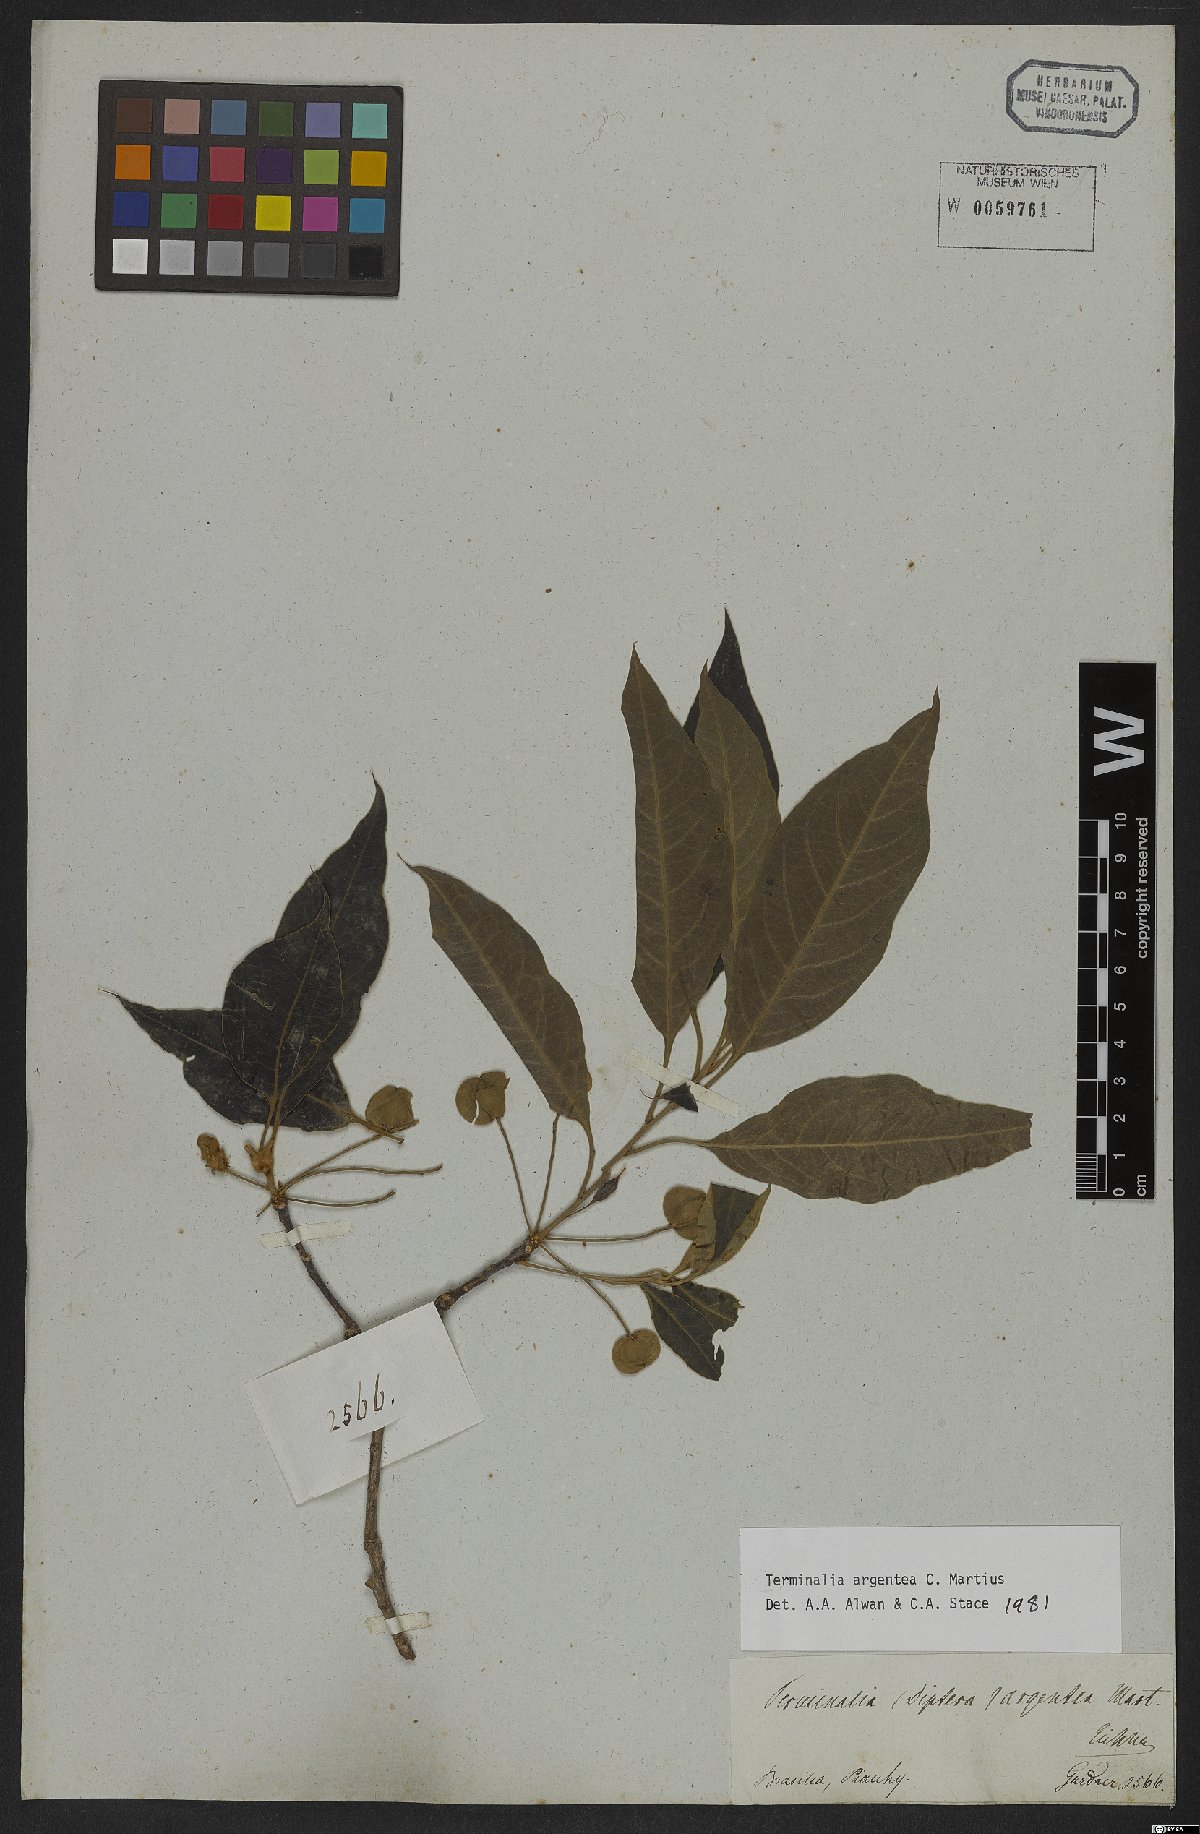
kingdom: Plantae
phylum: Tracheophyta
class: Magnoliopsida
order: Myrtales
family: Combretaceae
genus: Terminalia
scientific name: Terminalia argentea
